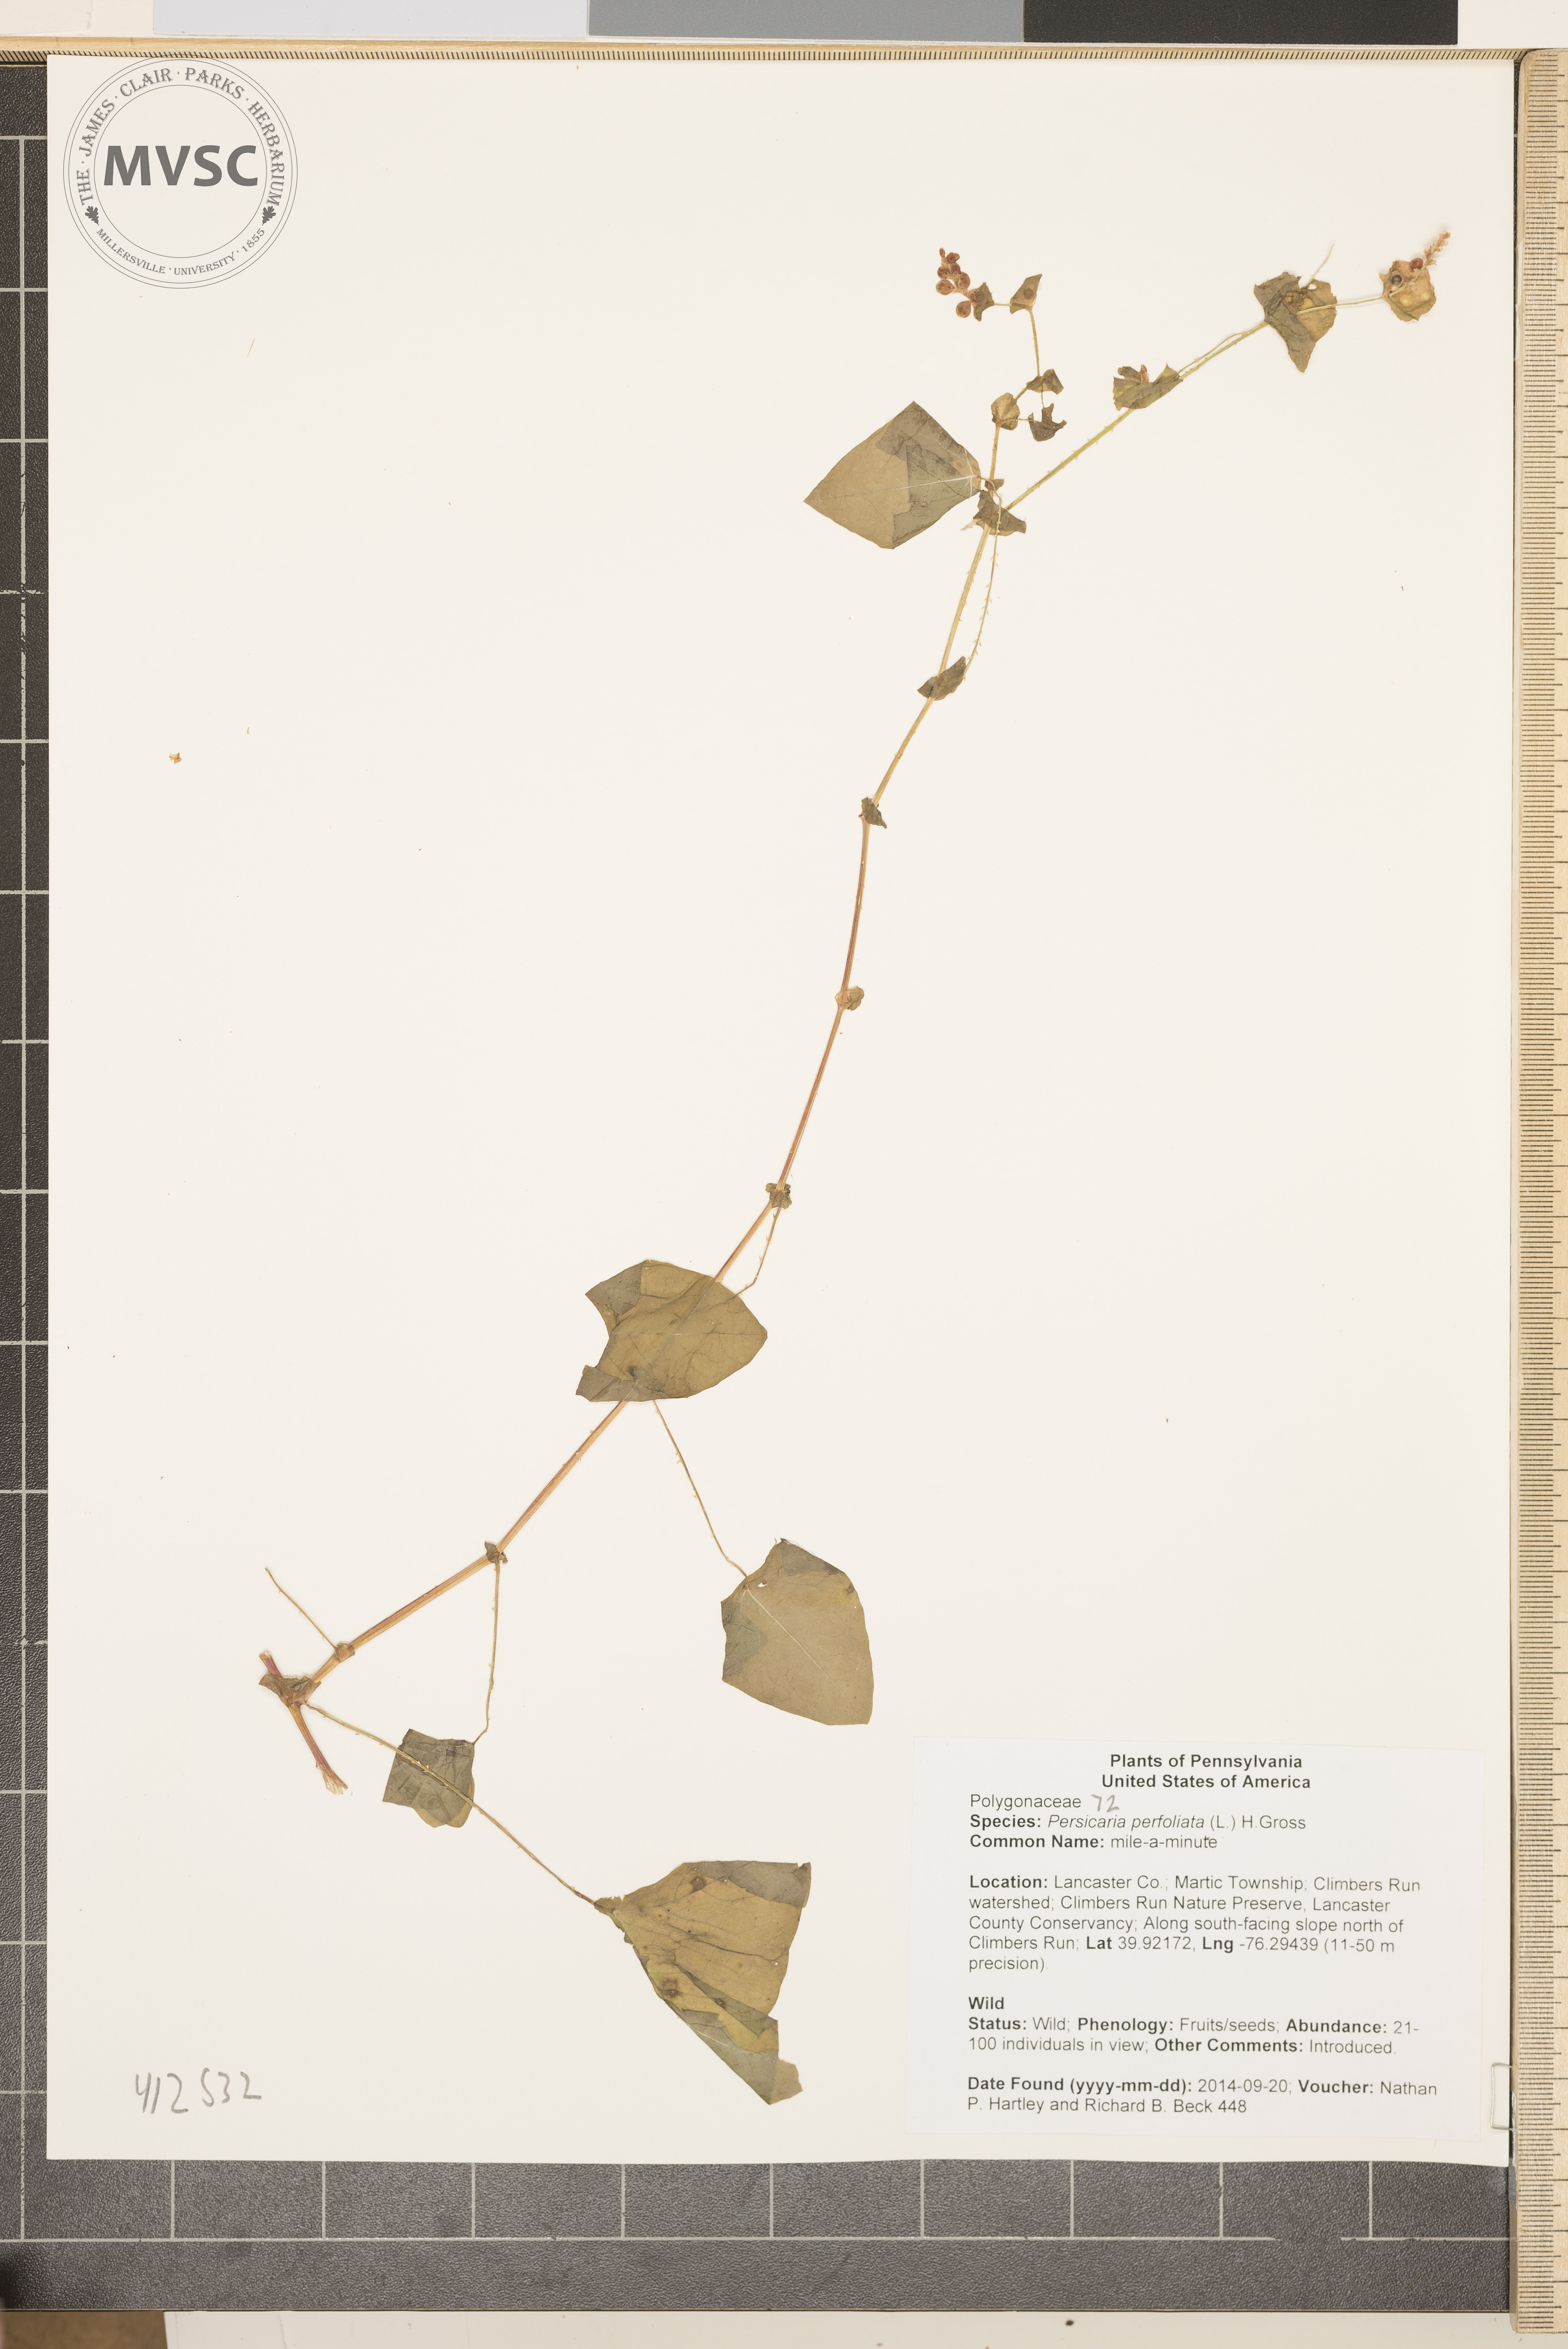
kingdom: Plantae
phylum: Tracheophyta
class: Magnoliopsida
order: Caryophyllales
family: Polygonaceae
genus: Persicaria
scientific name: Persicaria perfoliata
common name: mile-a-minute
